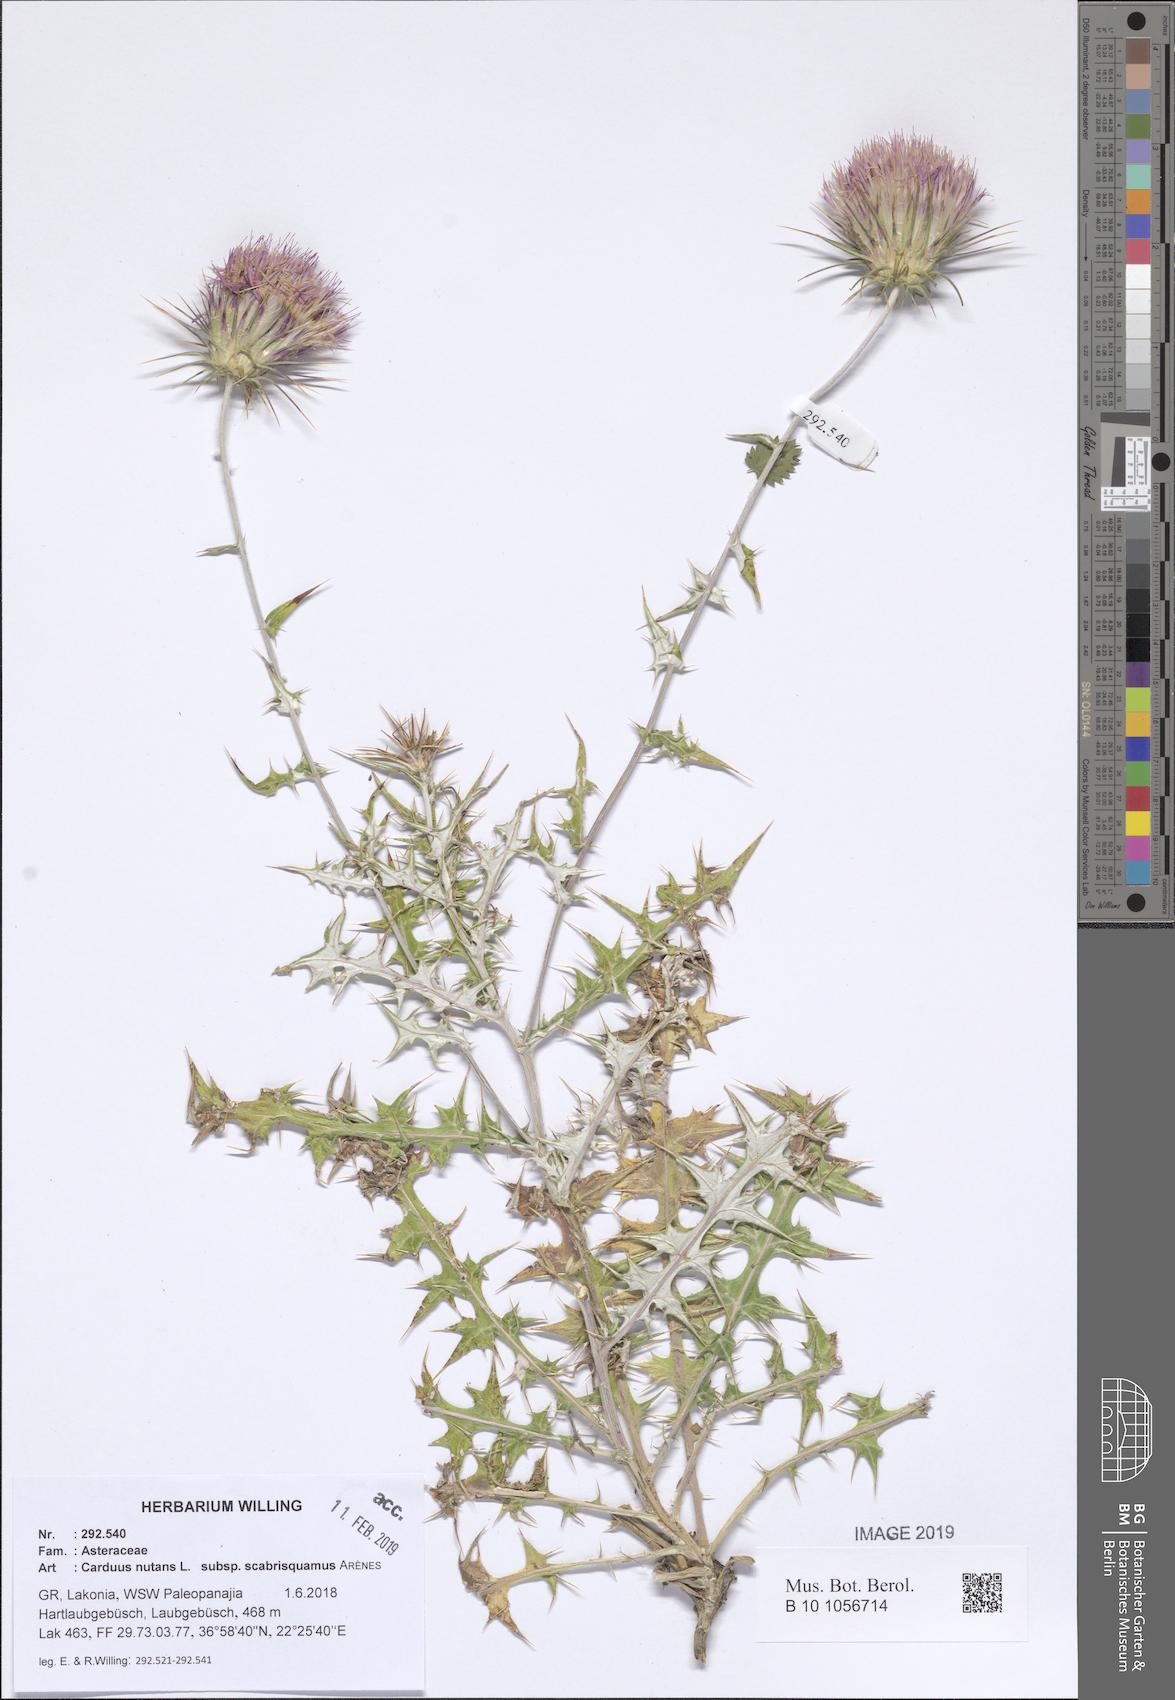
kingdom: Plantae
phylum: Tracheophyta
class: Magnoliopsida
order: Asterales
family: Asteraceae
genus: Carduus
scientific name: Carduus macrocephalus
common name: Giant thistle
